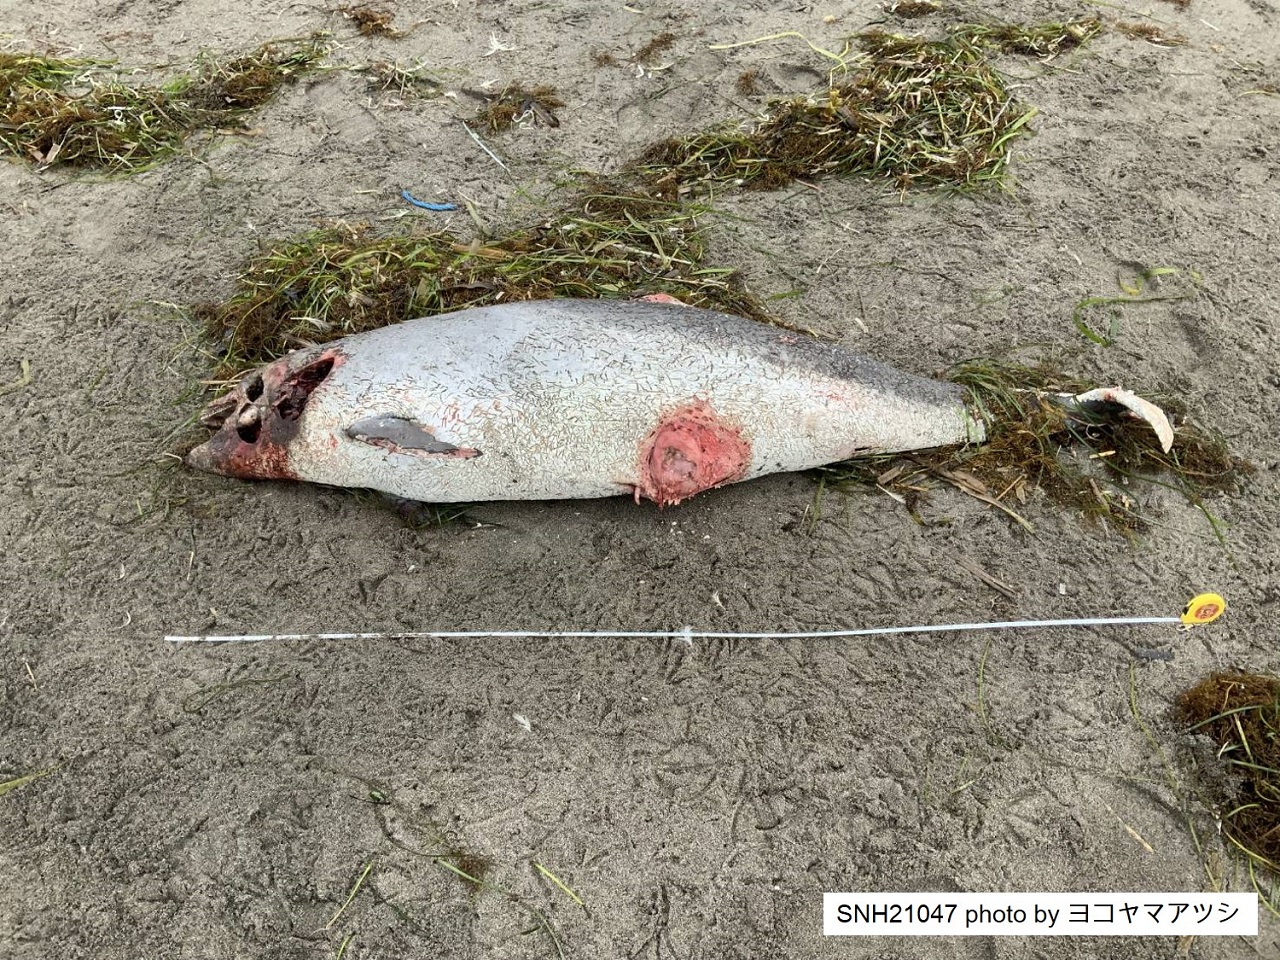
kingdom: Animalia
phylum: Chordata
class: Mammalia
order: Cetacea
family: Phocoenidae
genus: Phocoena
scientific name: Phocoena phocoena
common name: Harbour porpoise
